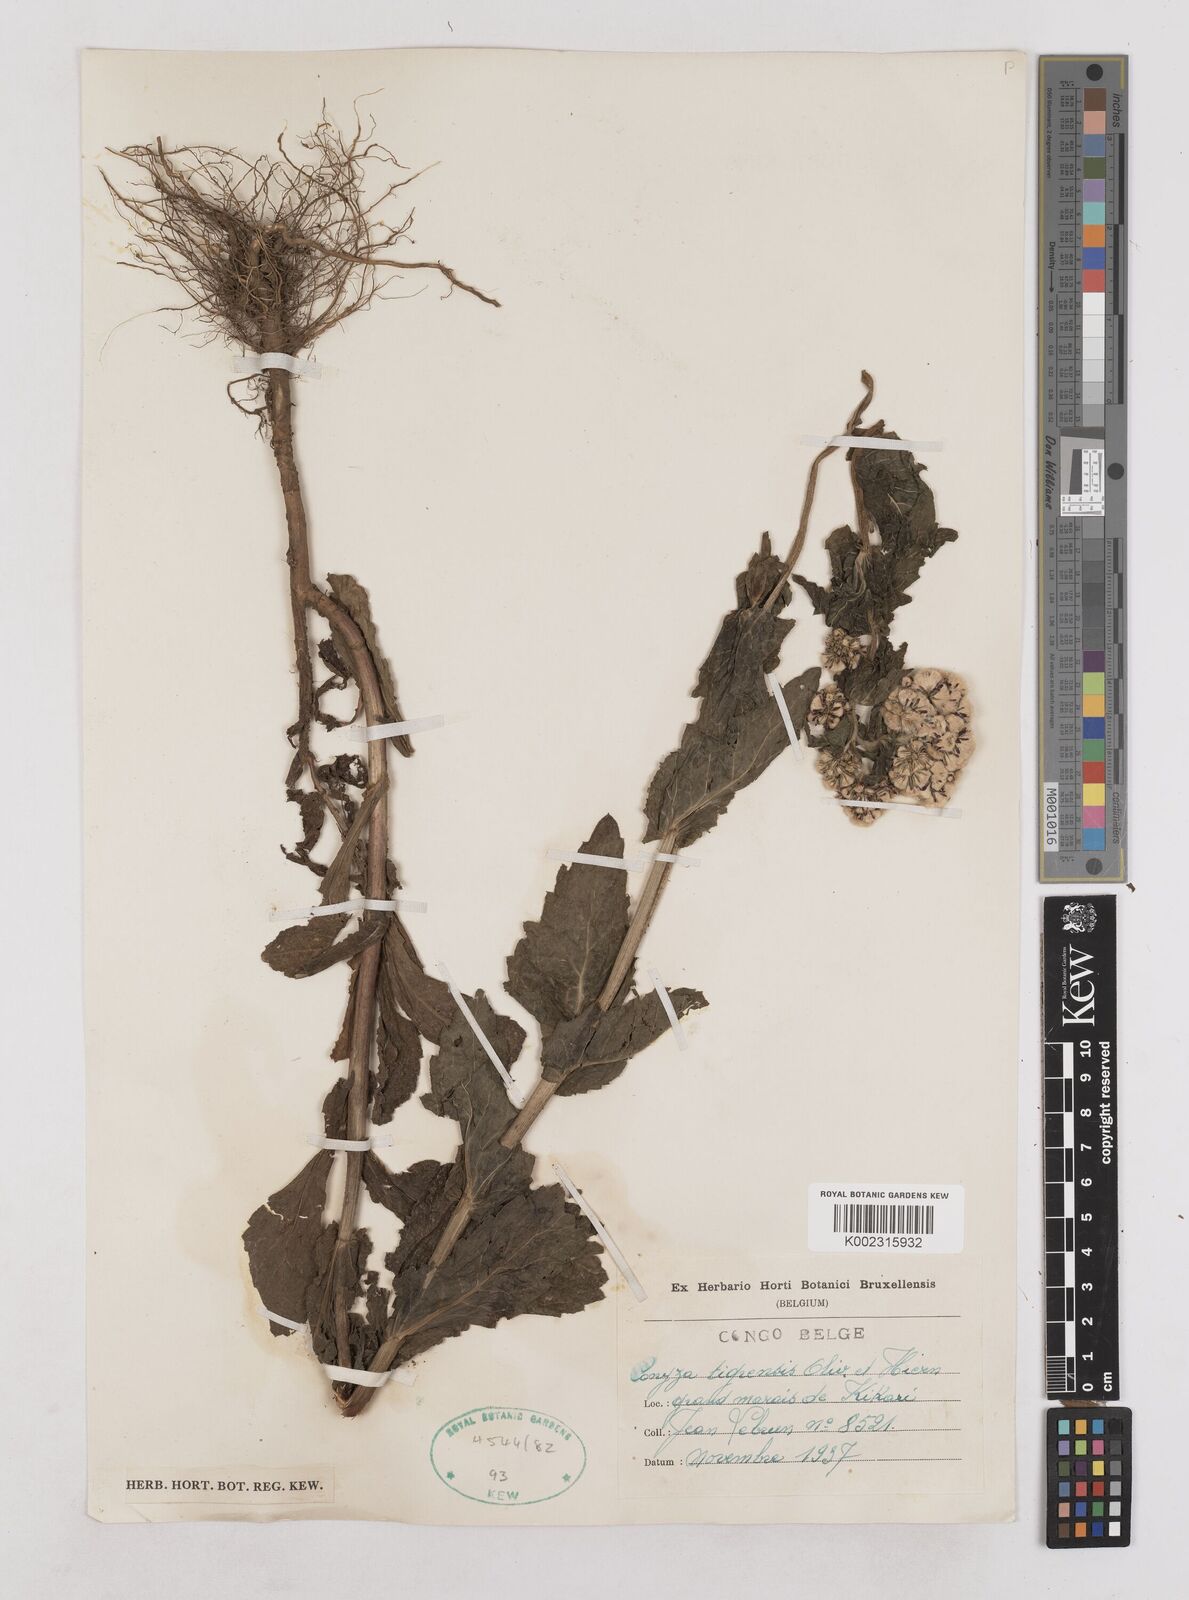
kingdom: Plantae
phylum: Tracheophyta
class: Magnoliopsida
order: Asterales
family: Asteraceae
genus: Eschenbachia
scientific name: Eschenbachia tigrensis
